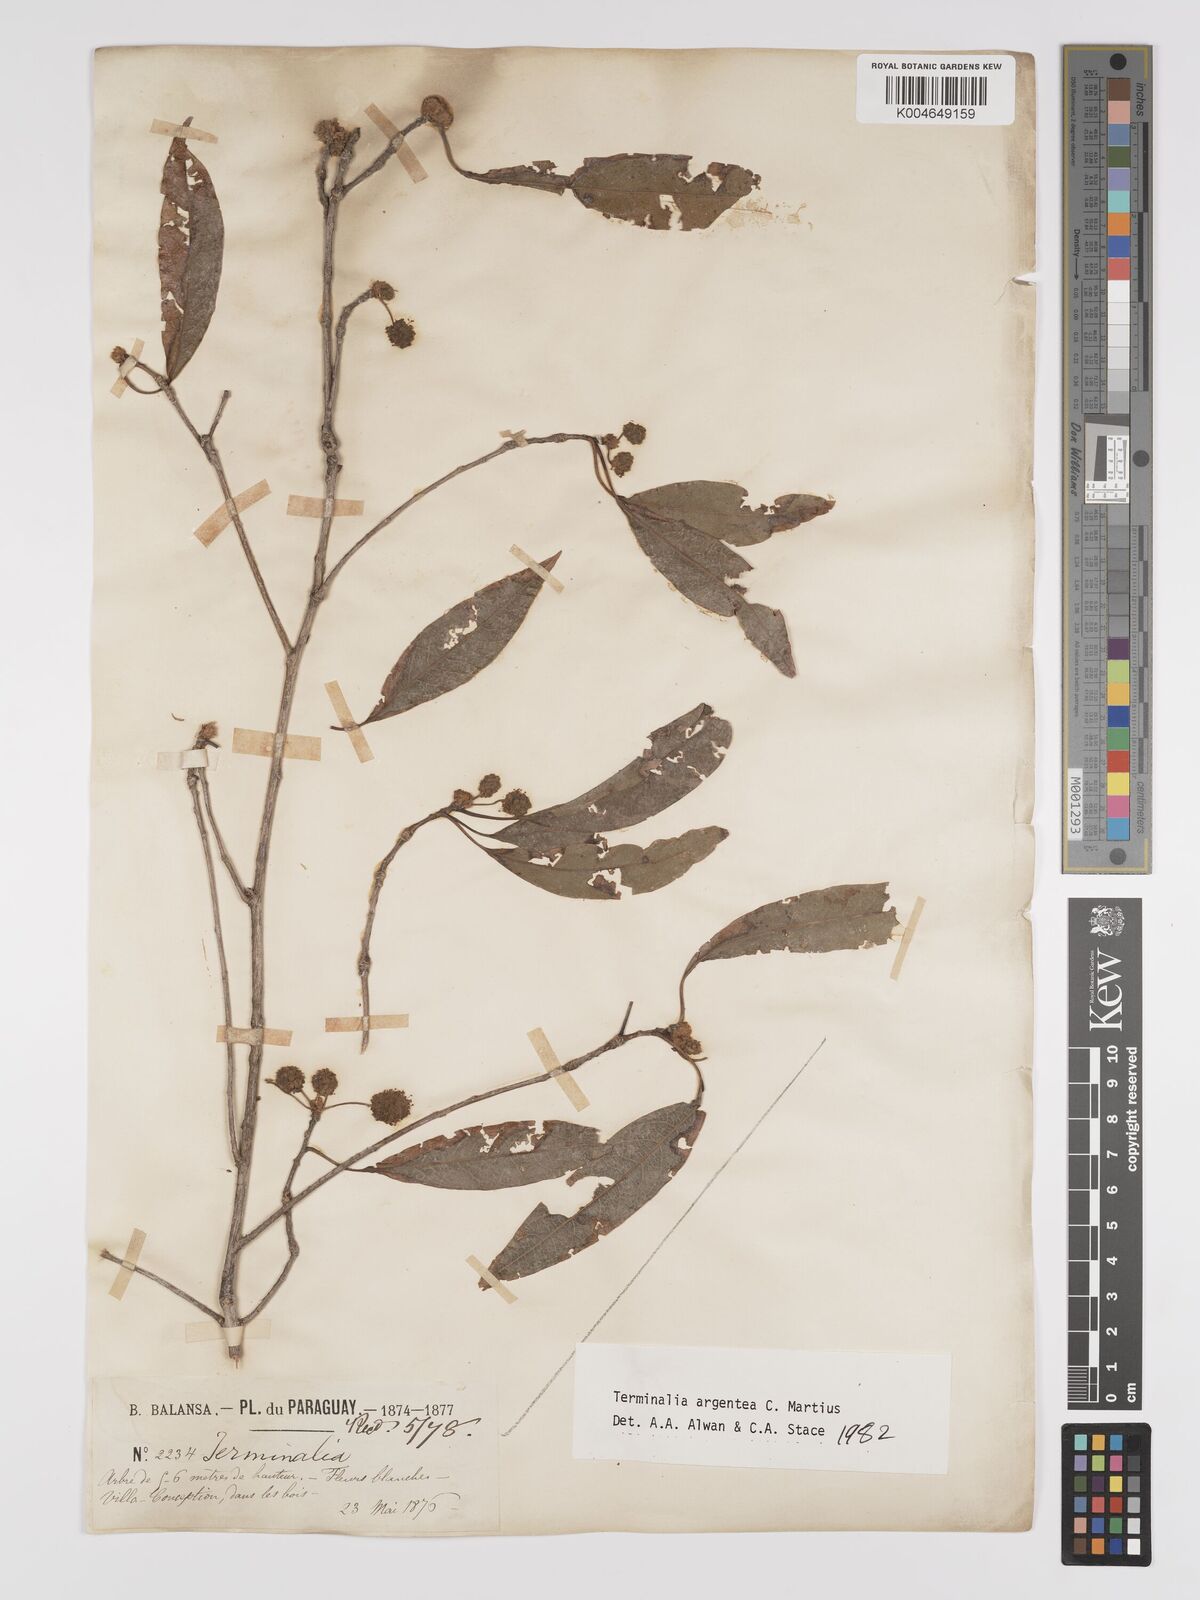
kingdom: Plantae
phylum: Tracheophyta
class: Magnoliopsida
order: Myrtales
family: Combretaceae
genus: Terminalia
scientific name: Terminalia argentea
